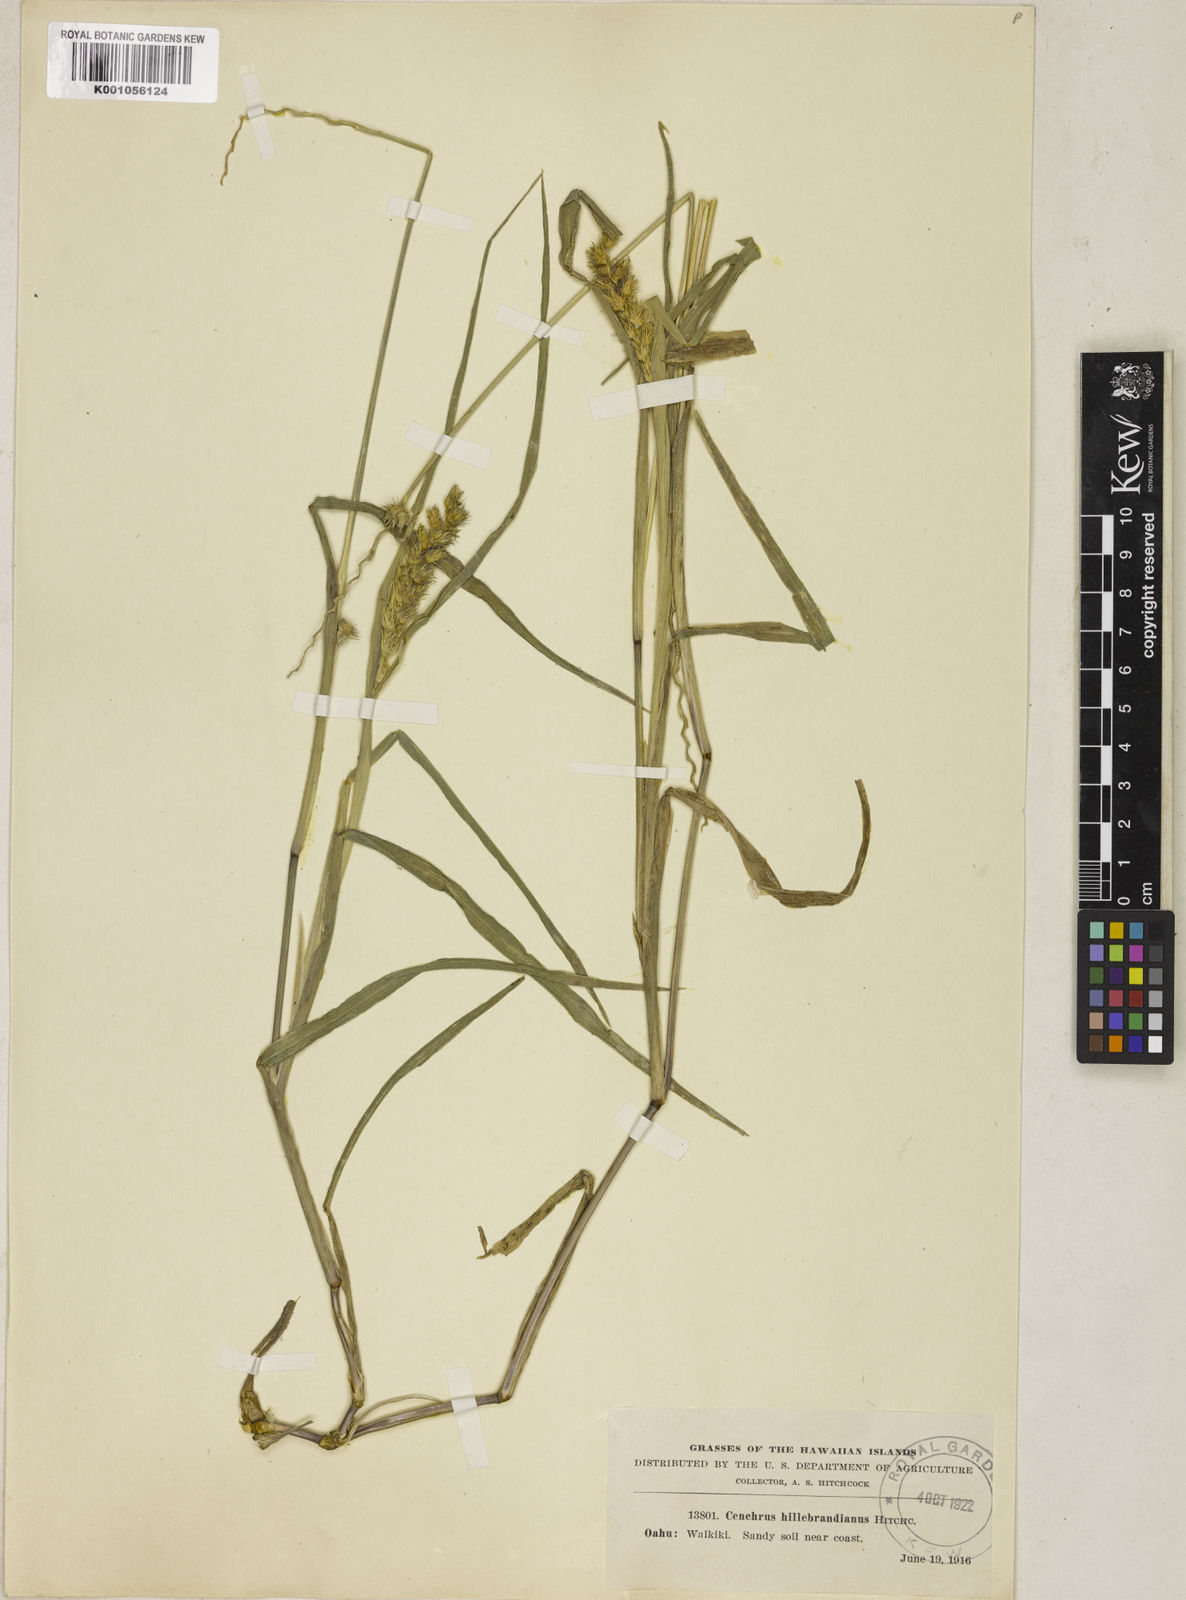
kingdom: Plantae
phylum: Tracheophyta
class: Liliopsida
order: Poales
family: Poaceae
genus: Cenchrus
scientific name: Cenchrus echinatus
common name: Southern sandbur
